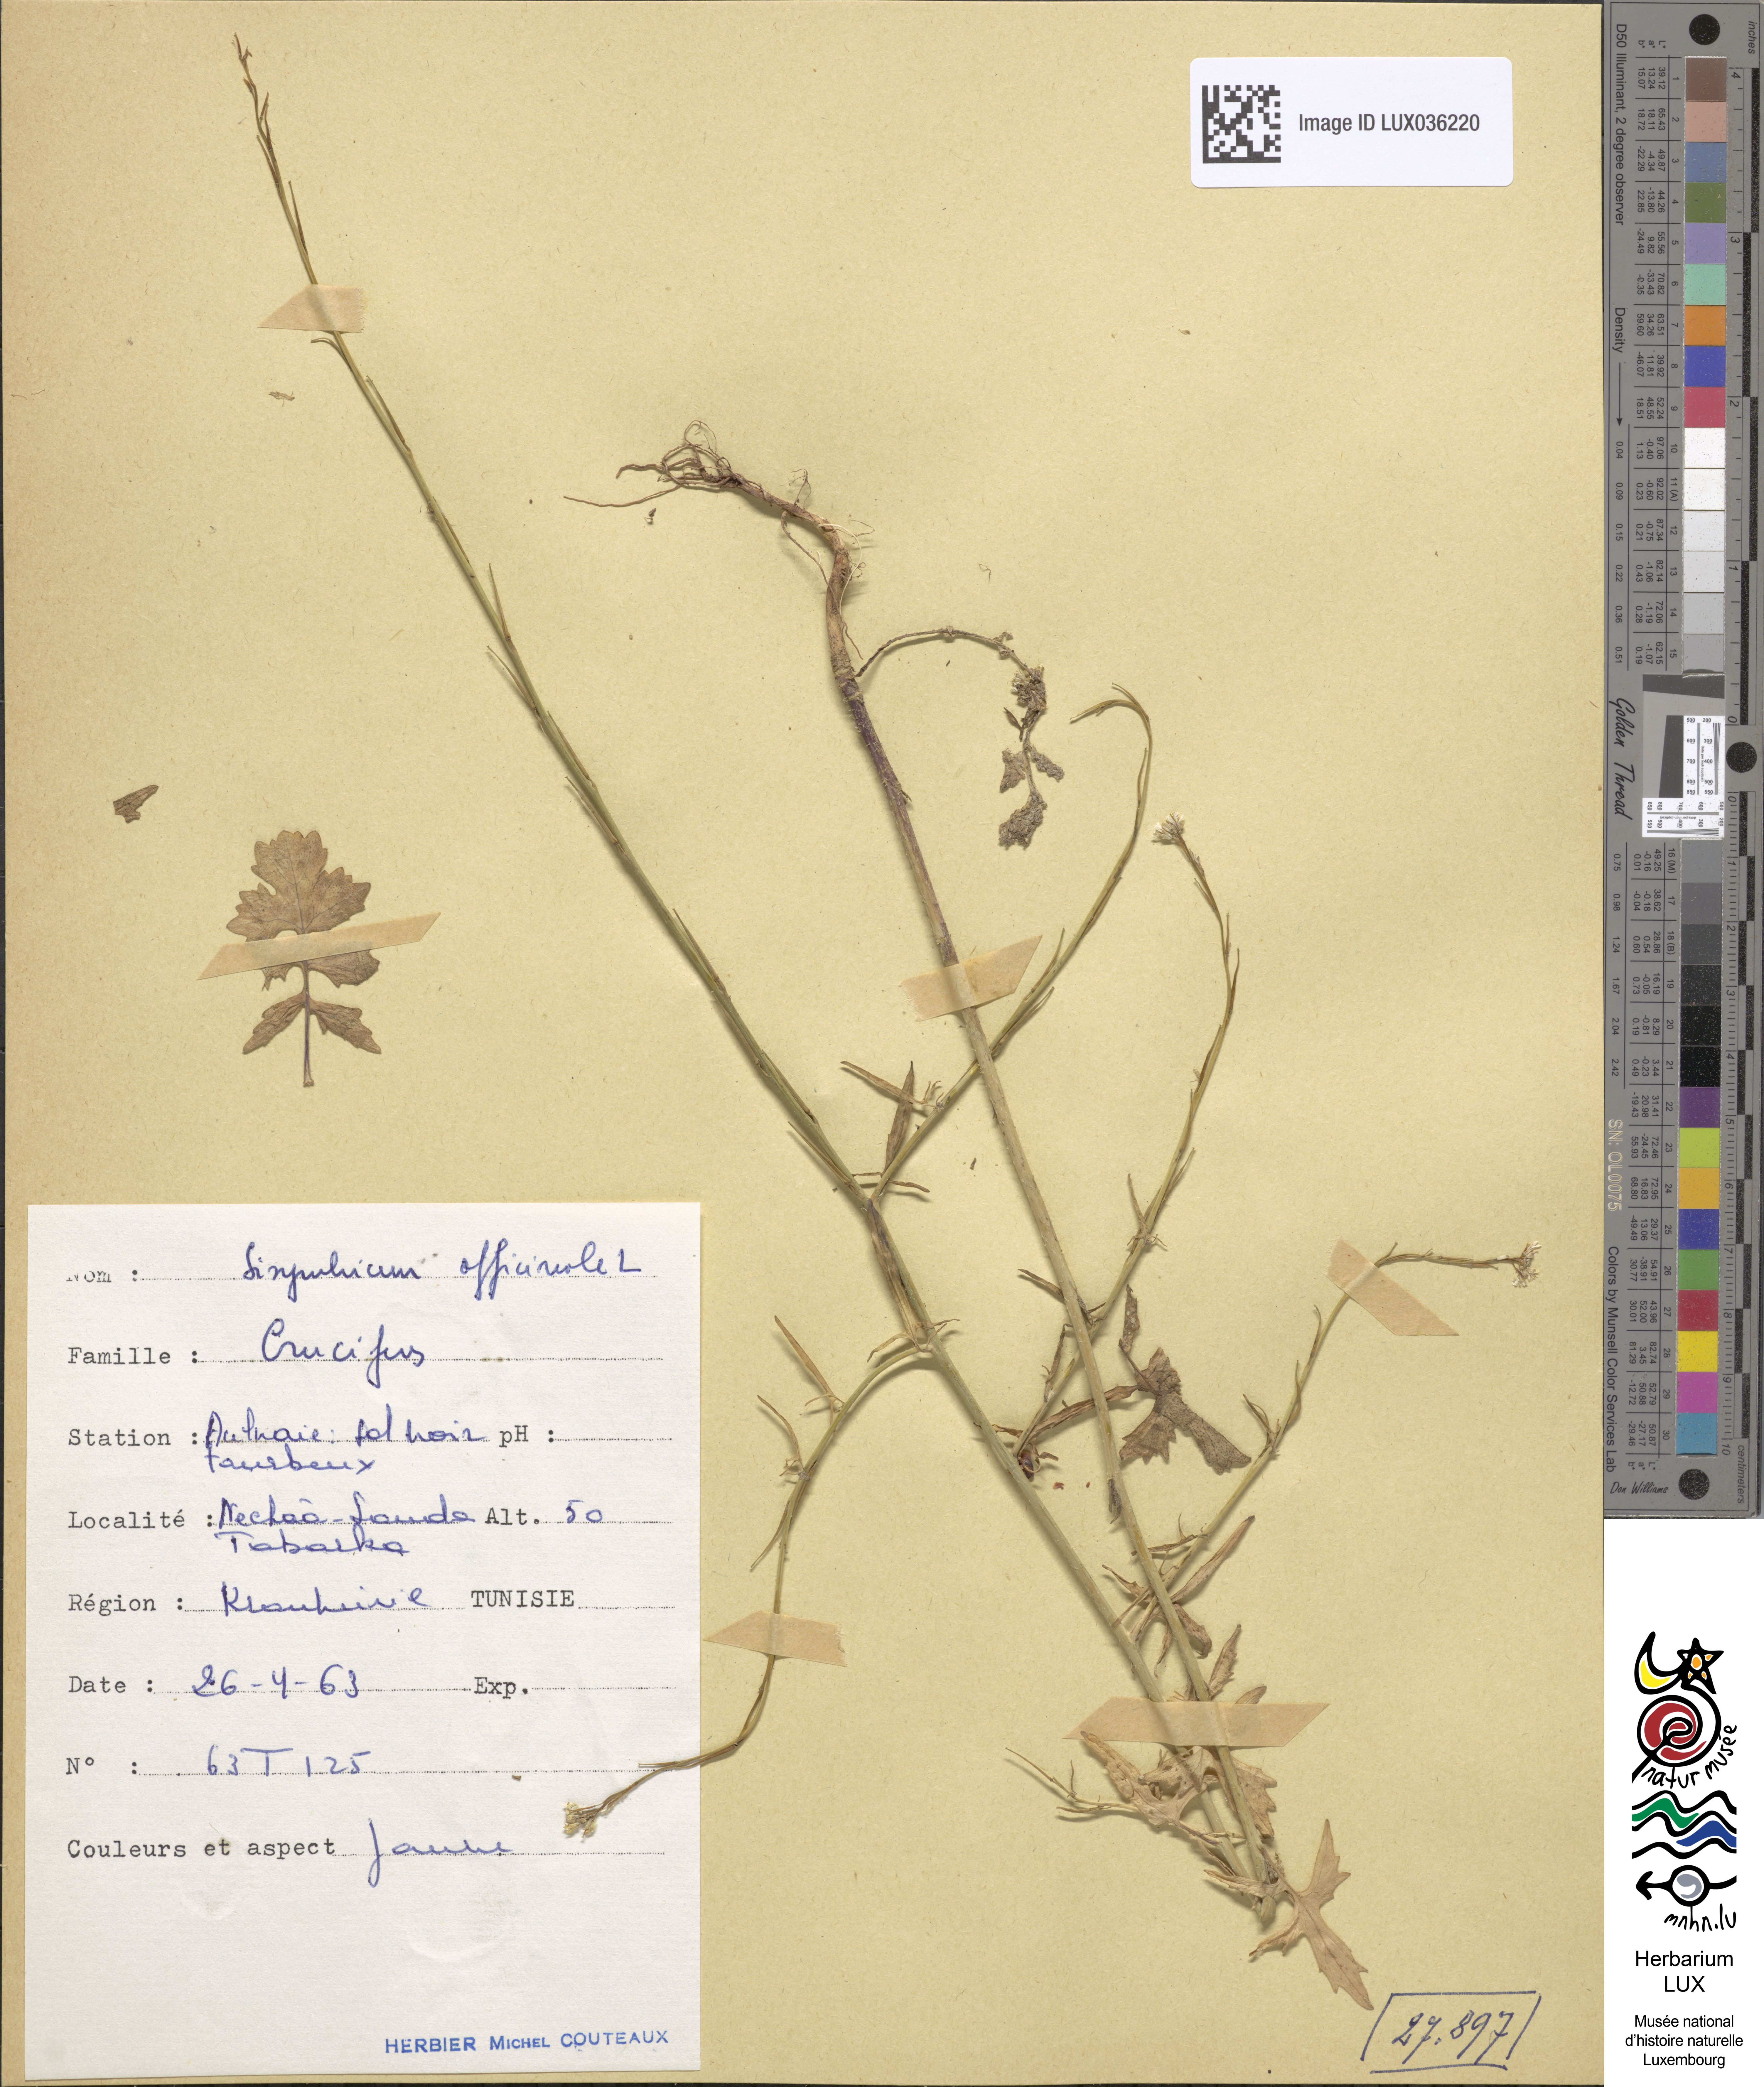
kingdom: Plantae
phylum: Tracheophyta
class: Magnoliopsida
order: Brassicales
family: Brassicaceae
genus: Sisymbrium
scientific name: Sisymbrium officinale
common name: Hedge mustard
